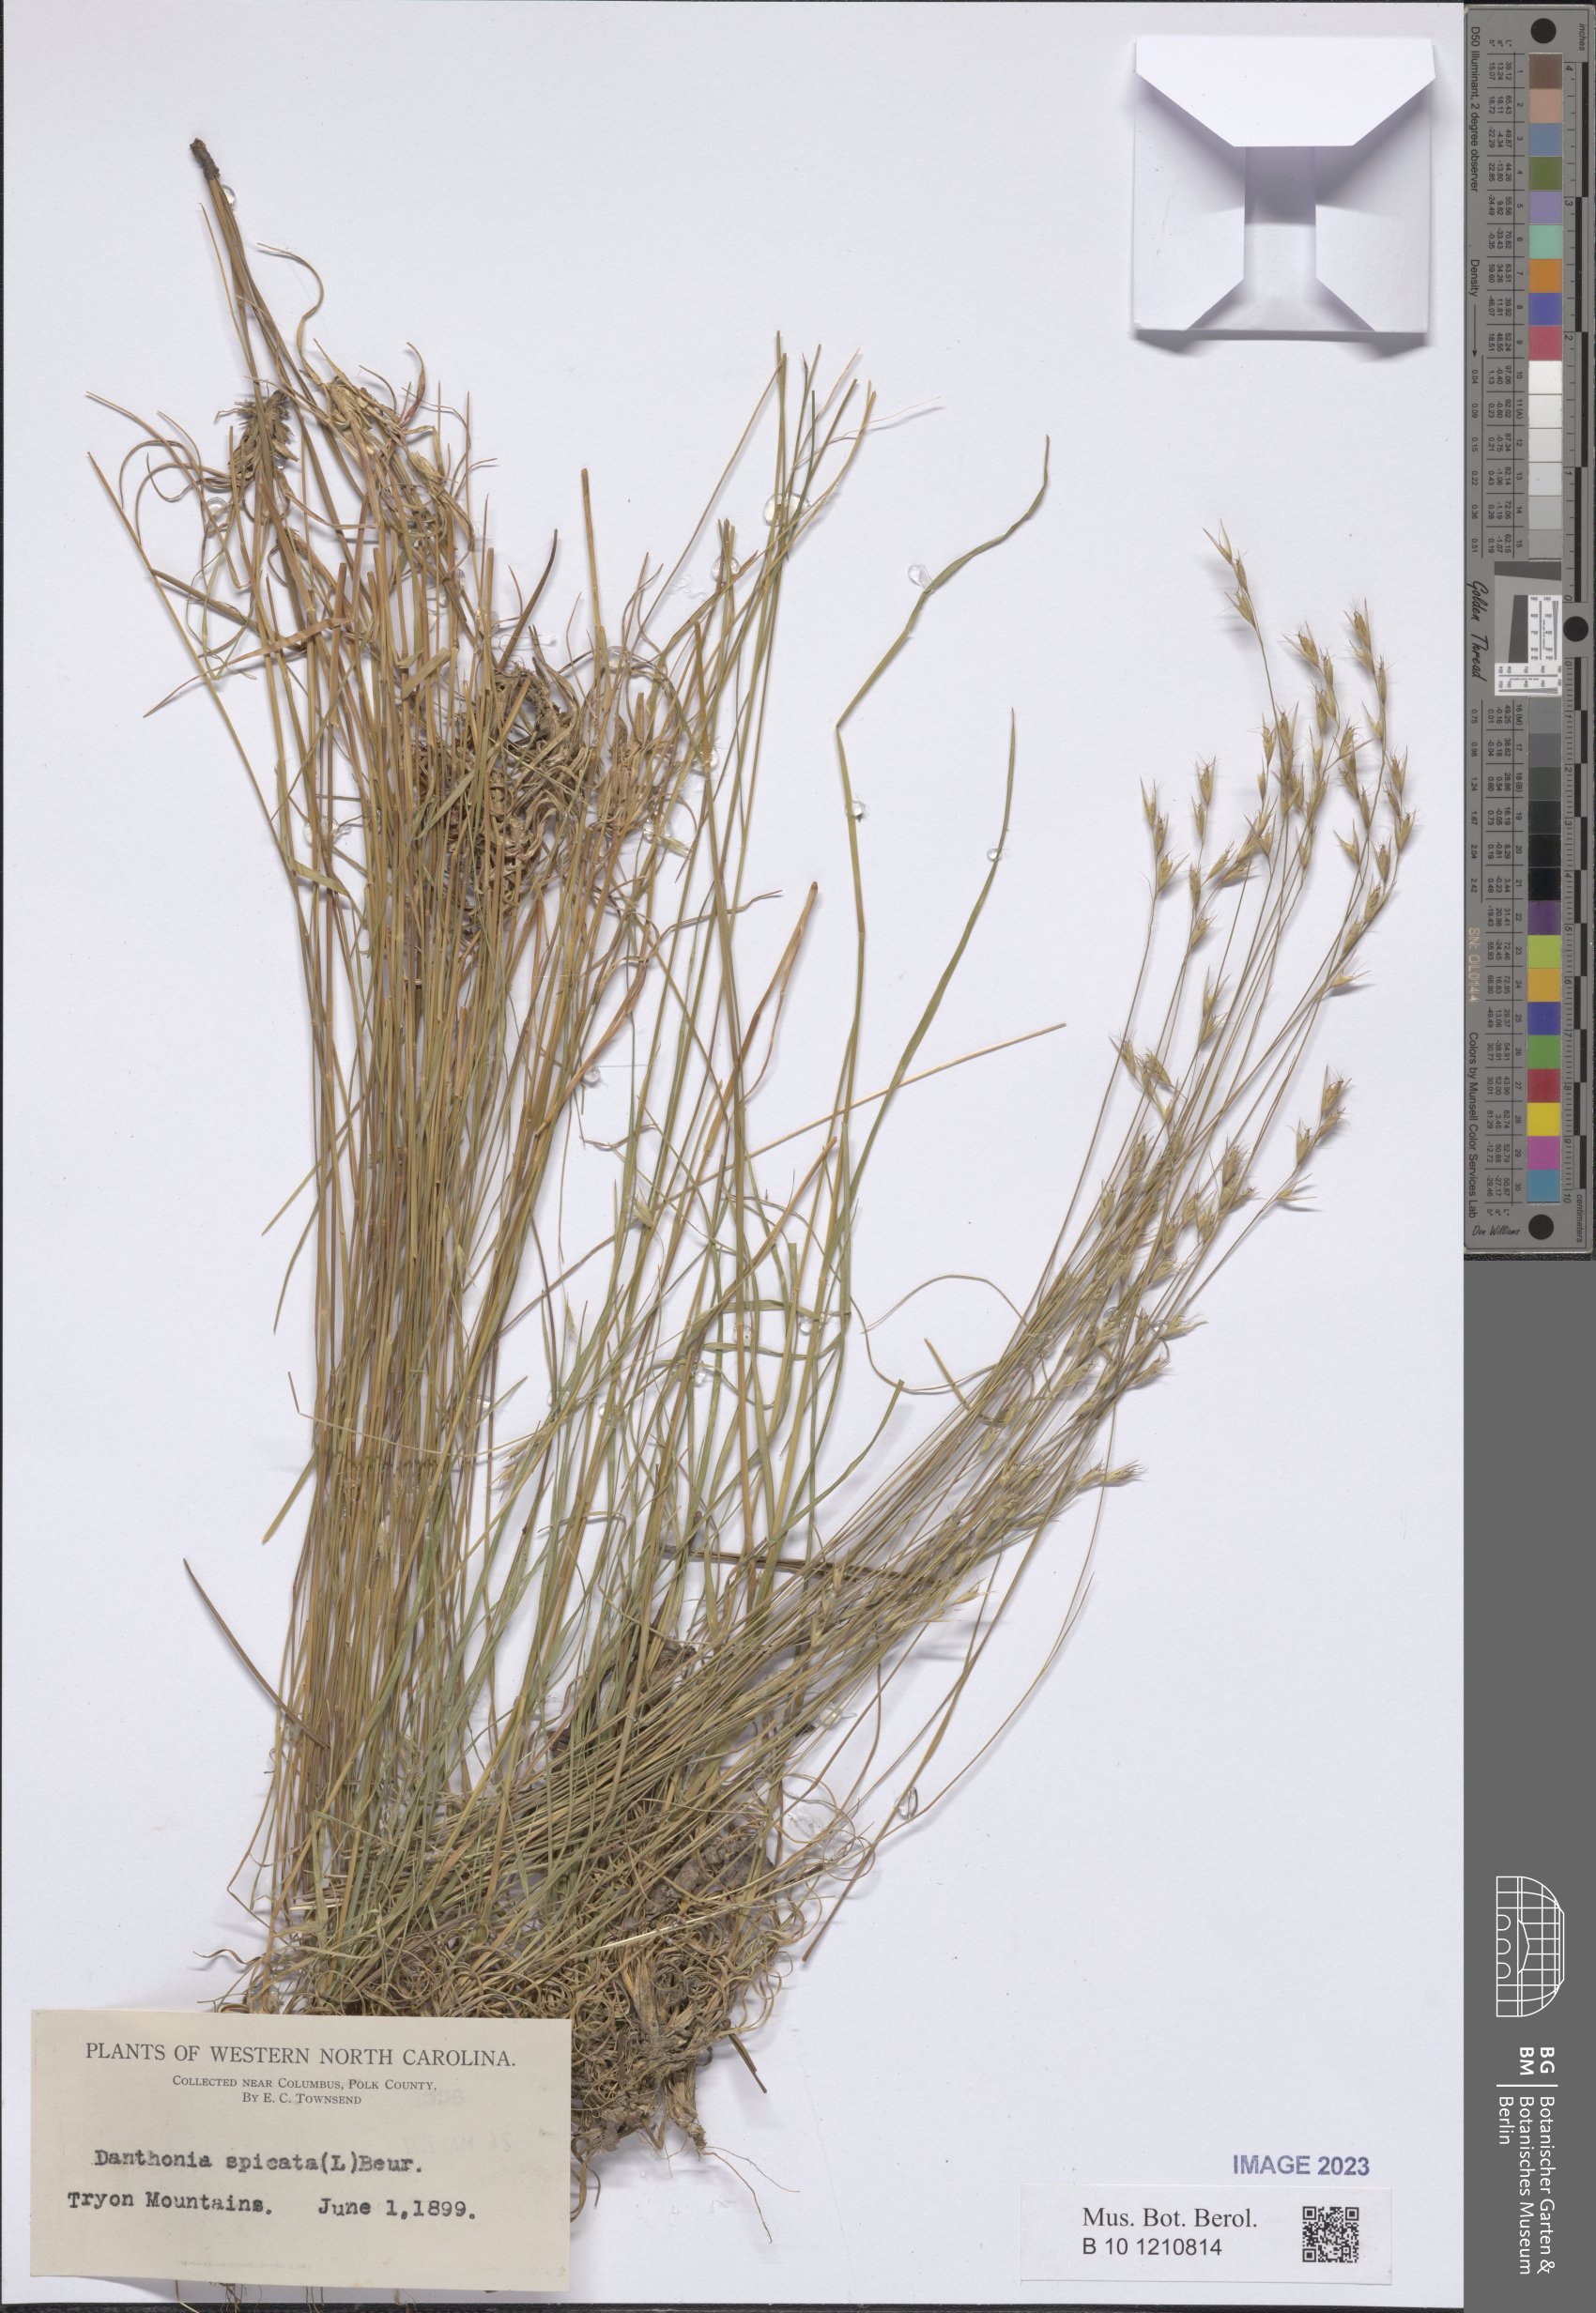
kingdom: Plantae
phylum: Tracheophyta
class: Liliopsida
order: Poales
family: Poaceae
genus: Danthonia
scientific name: Danthonia spicata
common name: Common wild oatgrass
